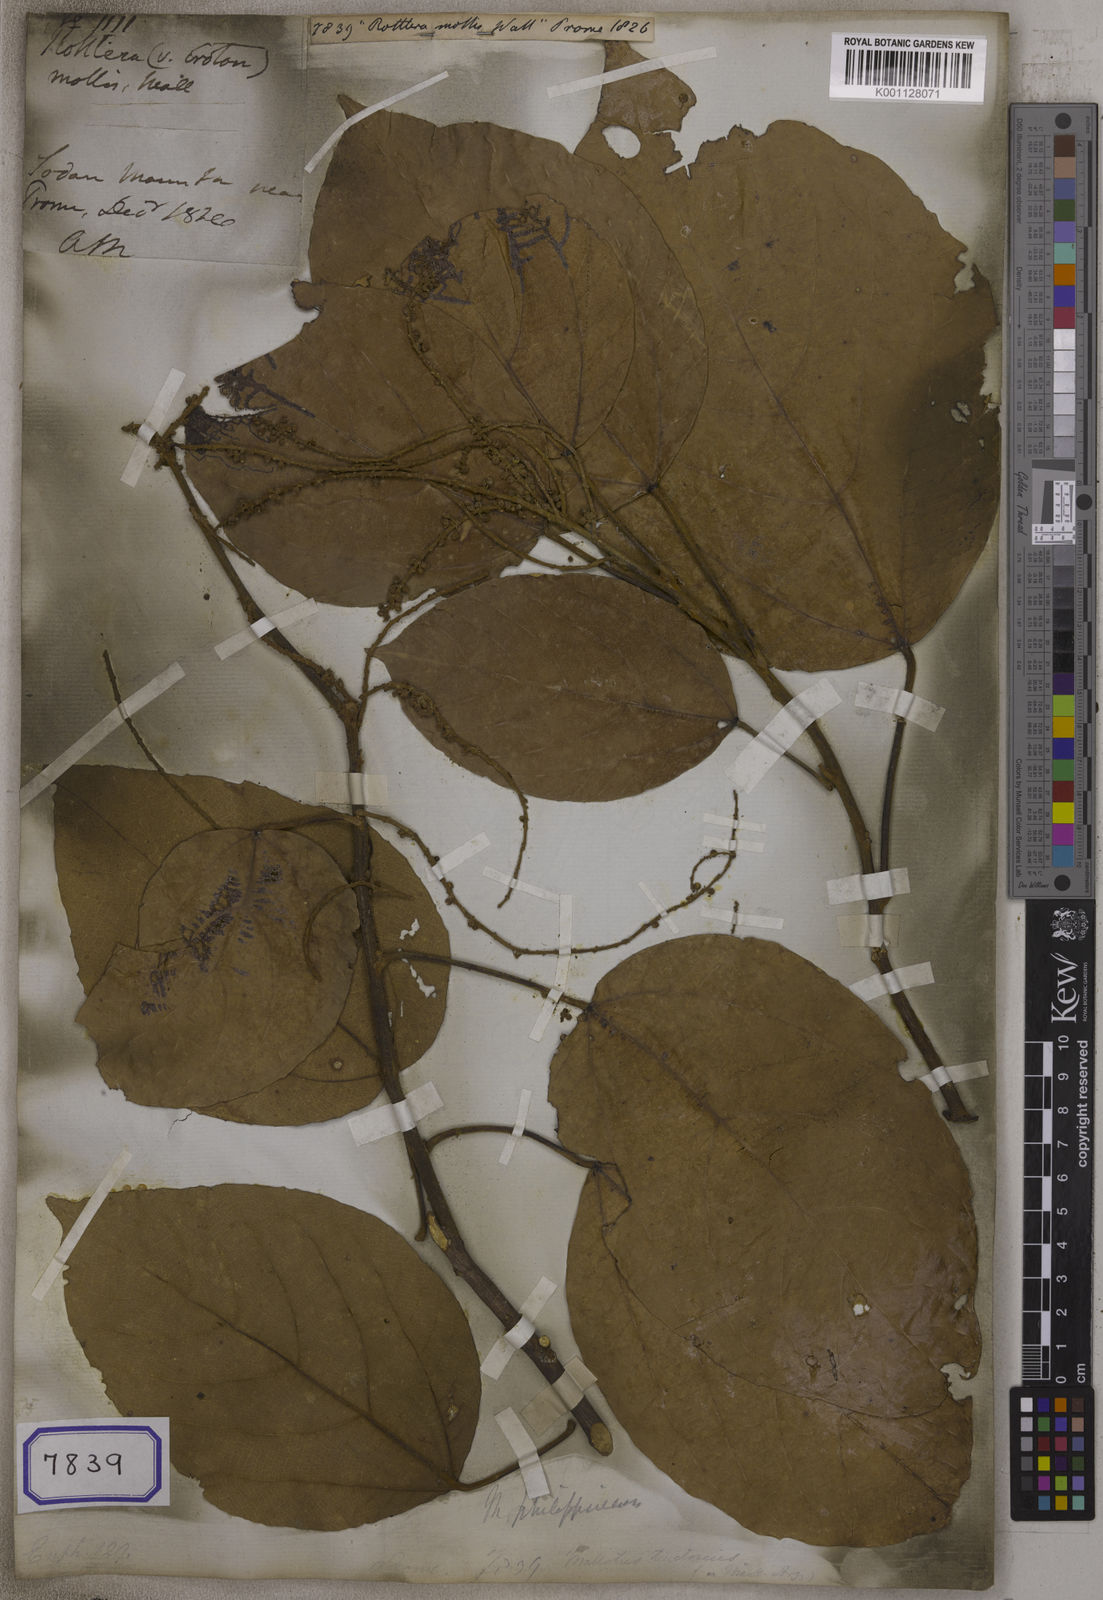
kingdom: Plantae
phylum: Tracheophyta
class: Magnoliopsida
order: Malpighiales
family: Euphorbiaceae
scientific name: Euphorbiaceae
